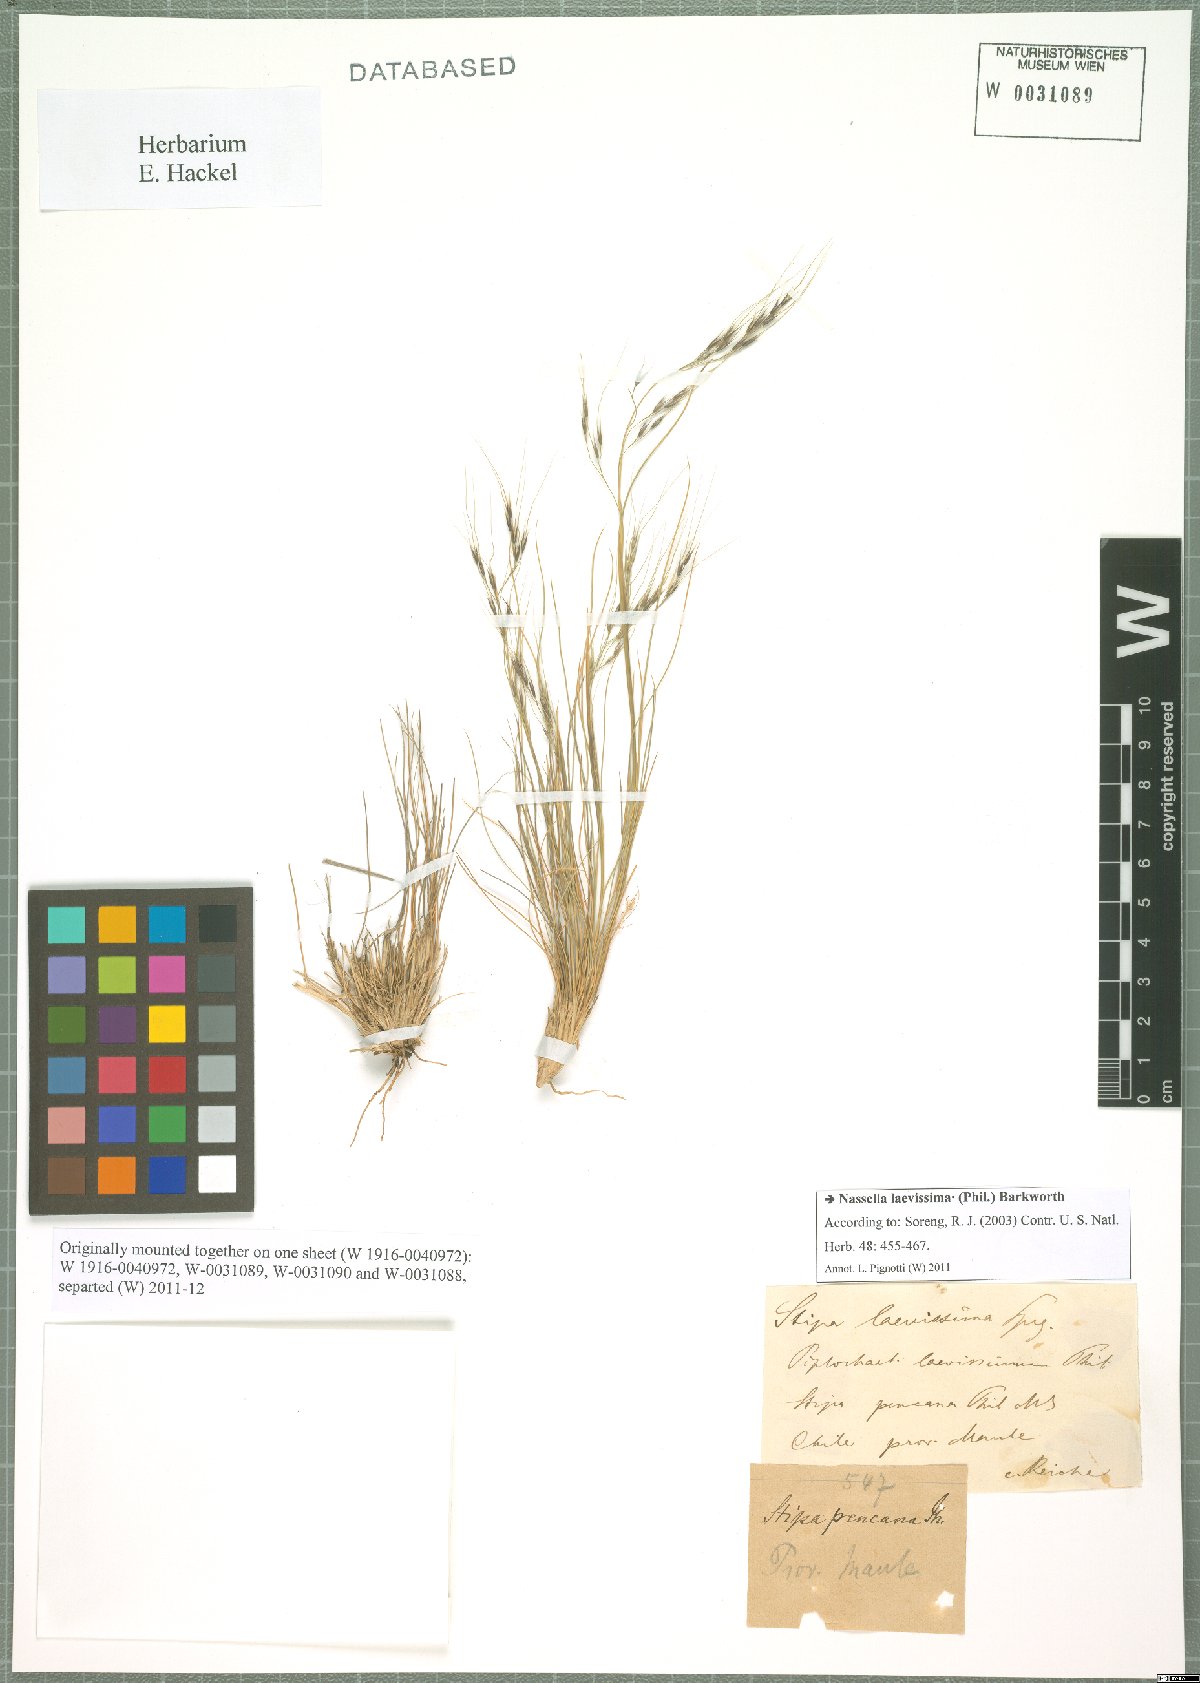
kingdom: Plantae
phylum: Tracheophyta
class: Liliopsida
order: Poales
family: Poaceae
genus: Nassella
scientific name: Nassella laevissima
